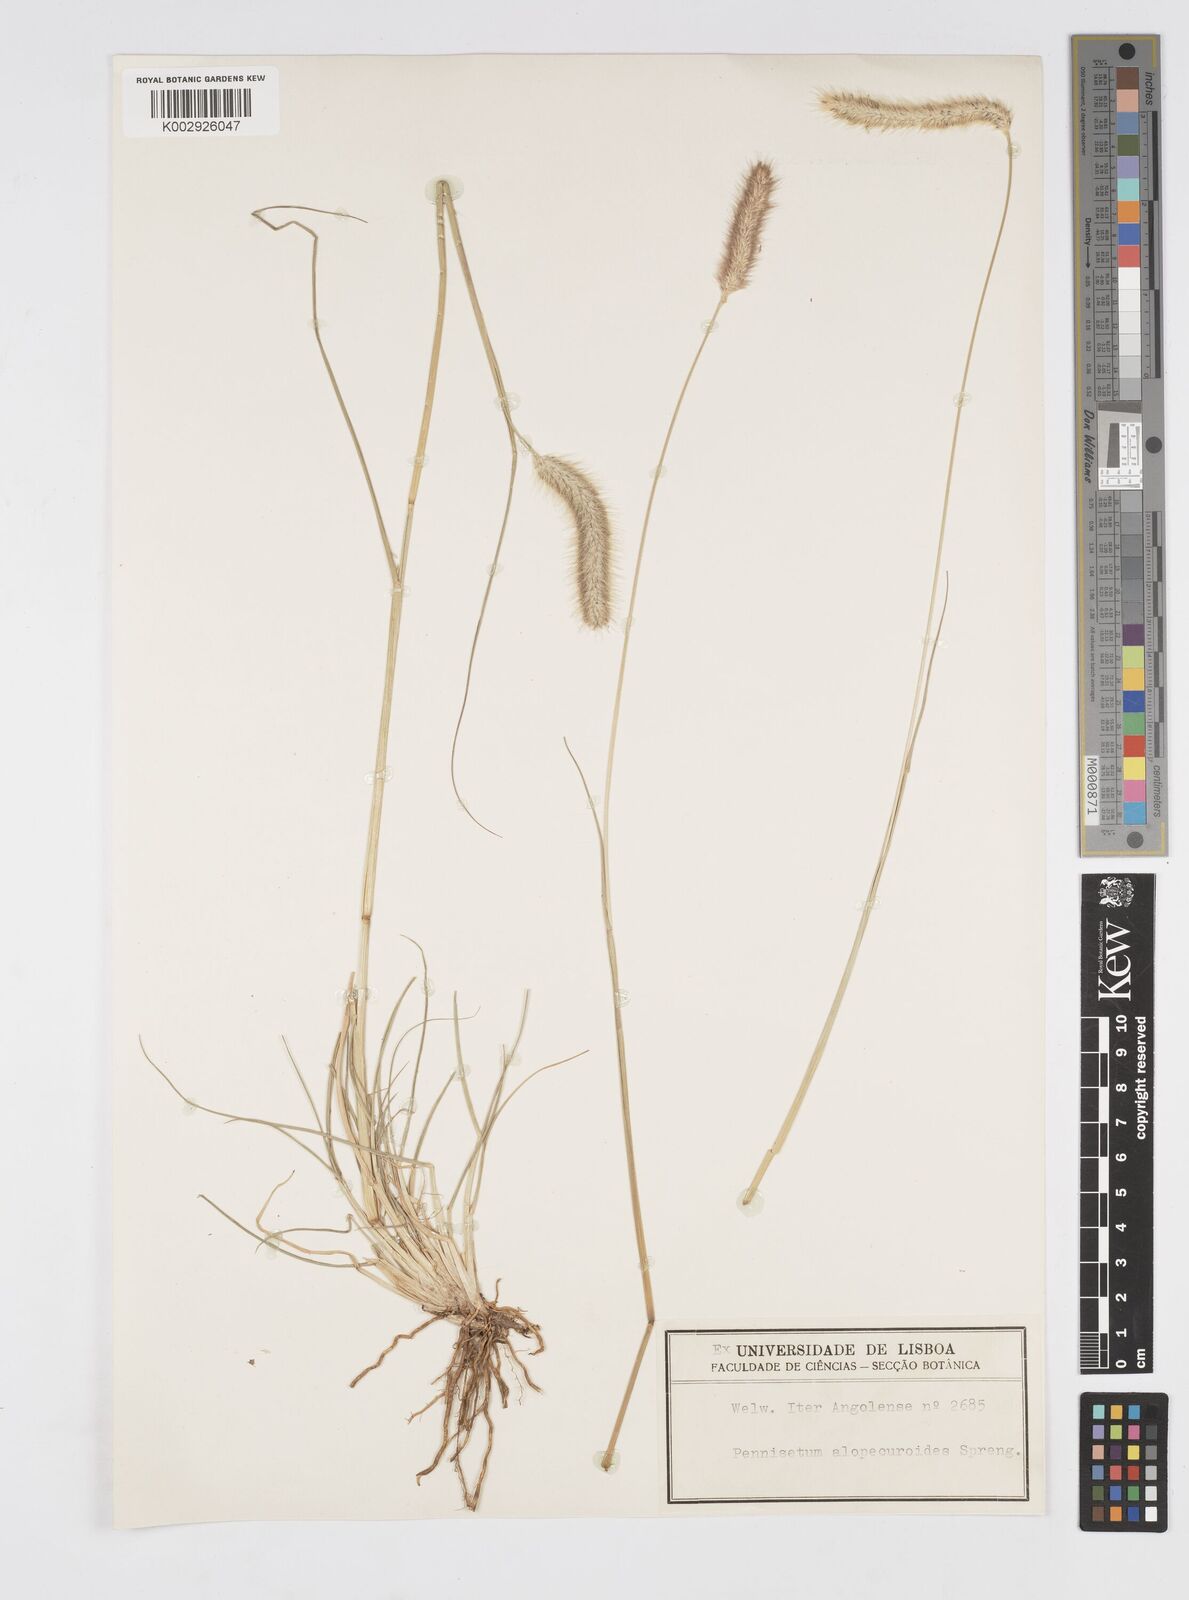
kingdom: Plantae
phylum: Tracheophyta
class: Liliopsida
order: Poales
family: Poaceae
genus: Cenchrus
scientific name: Cenchrus geniculatus
